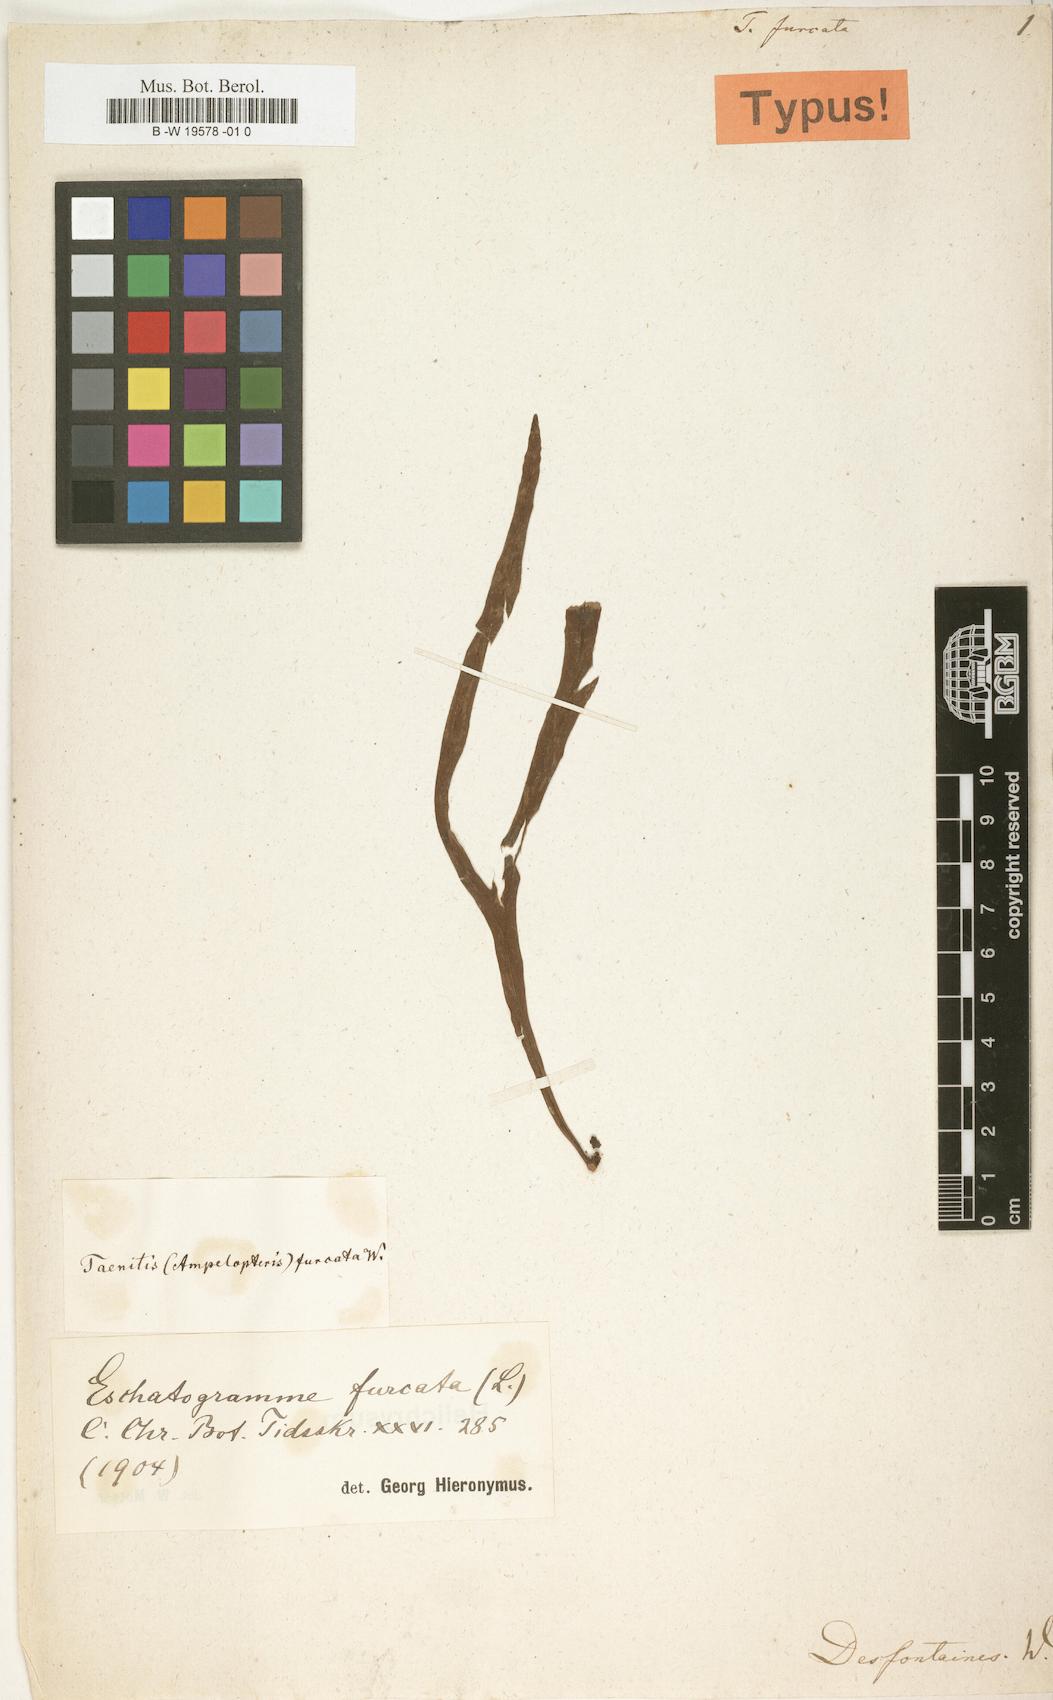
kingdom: Plantae
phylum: Tracheophyta
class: Polypodiopsida
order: Polypodiales
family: Polypodiaceae
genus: Pleopeltis
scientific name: Pleopeltis
